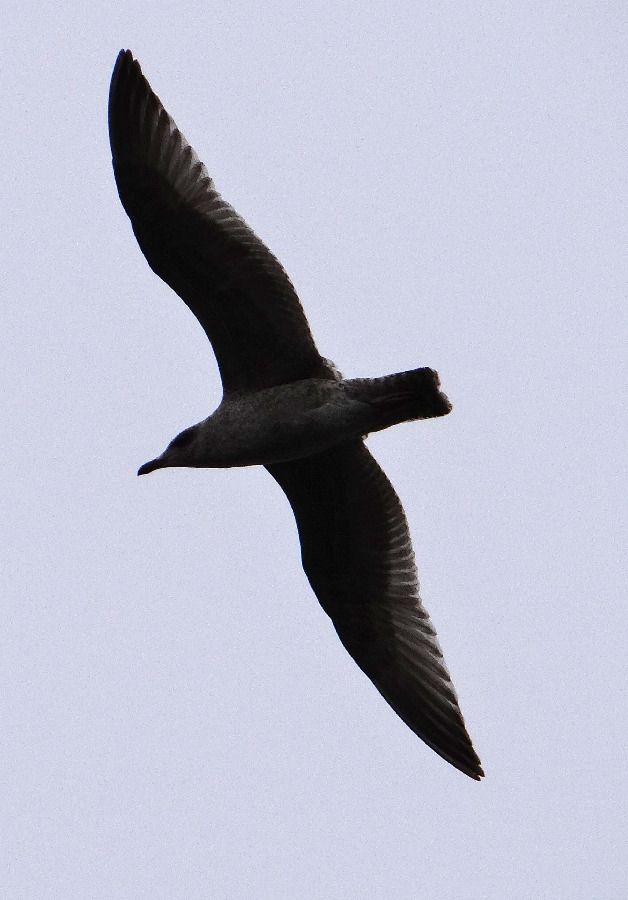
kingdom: Animalia
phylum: Chordata
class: Aves
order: Charadriiformes
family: Stercorariidae
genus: Stercorarius
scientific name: Stercorarius parasiticus
